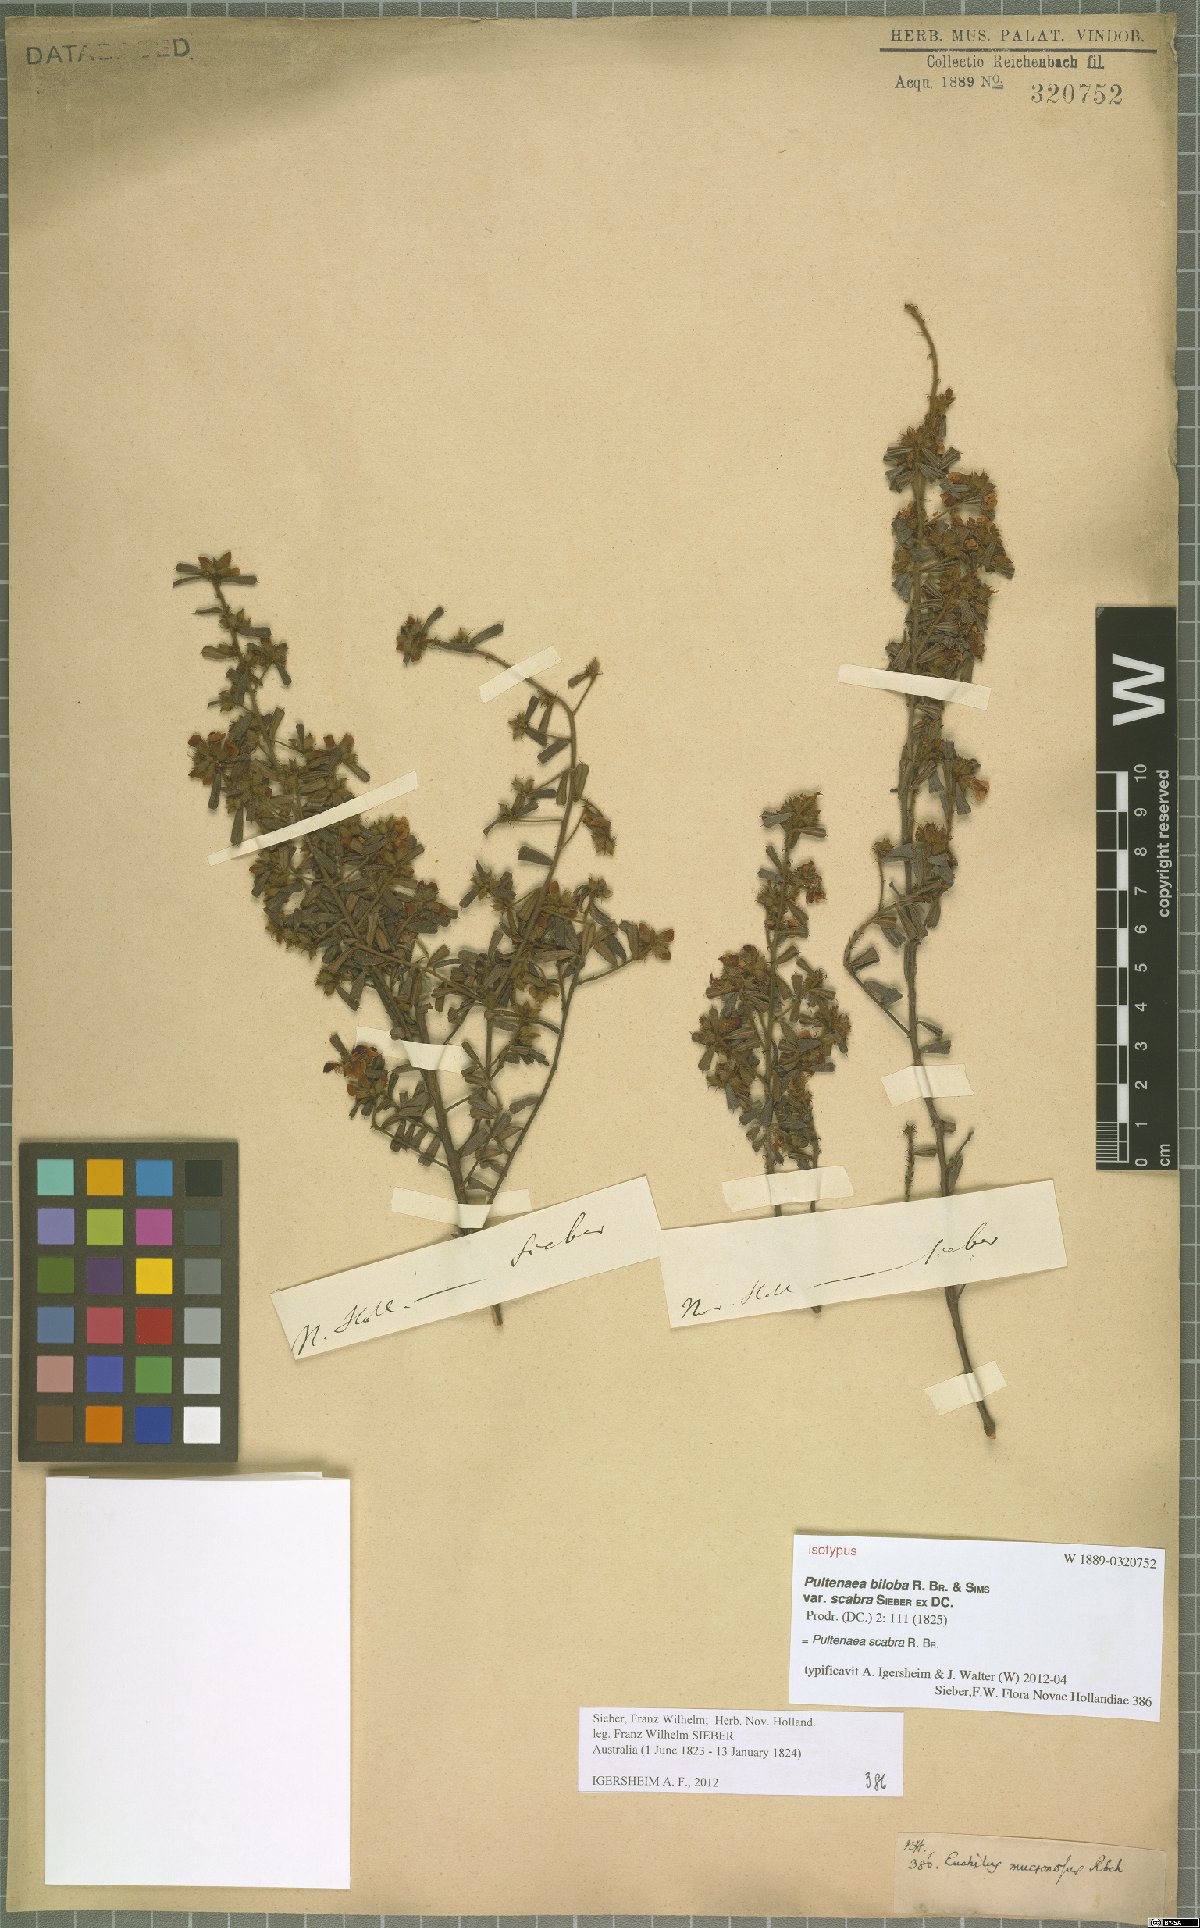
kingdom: Plantae
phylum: Tracheophyta
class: Magnoliopsida
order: Fabales
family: Fabaceae
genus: Pultenaea
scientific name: Pultenaea scabra
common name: Rough bush-pea
